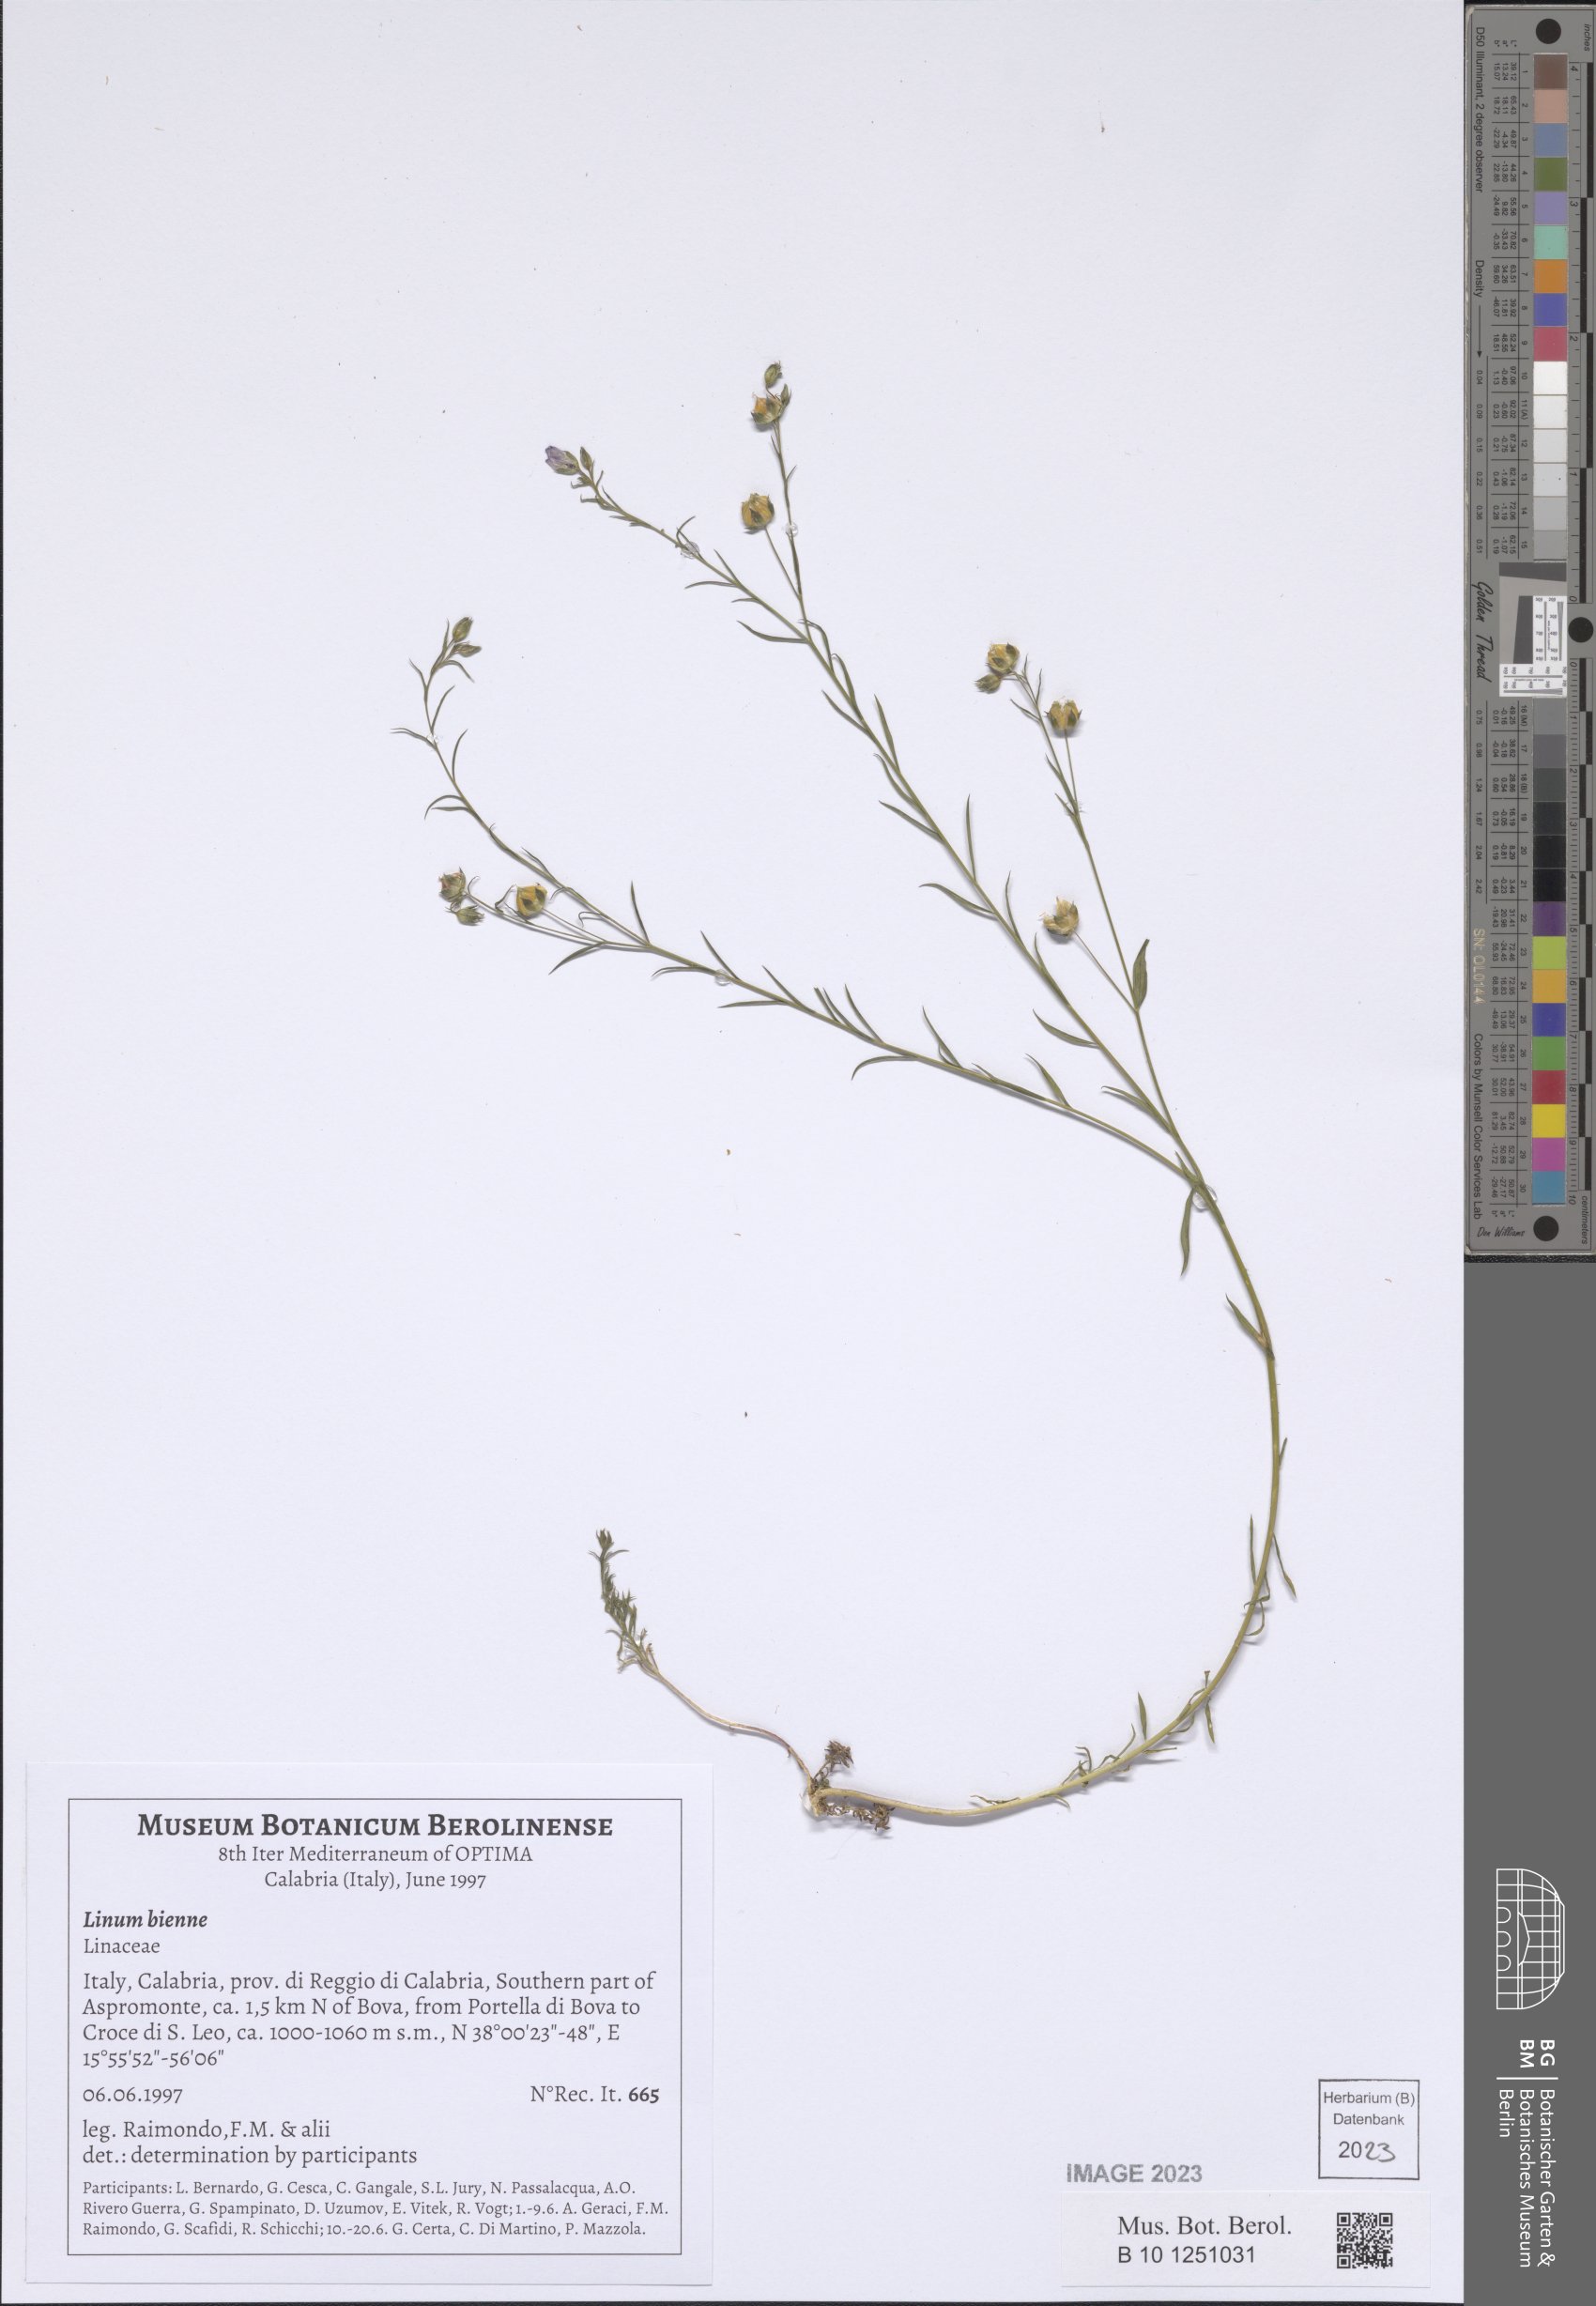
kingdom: Plantae
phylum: Tracheophyta
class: Magnoliopsida
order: Malpighiales
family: Linaceae
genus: Linum
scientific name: Linum bienne
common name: Pale flax
